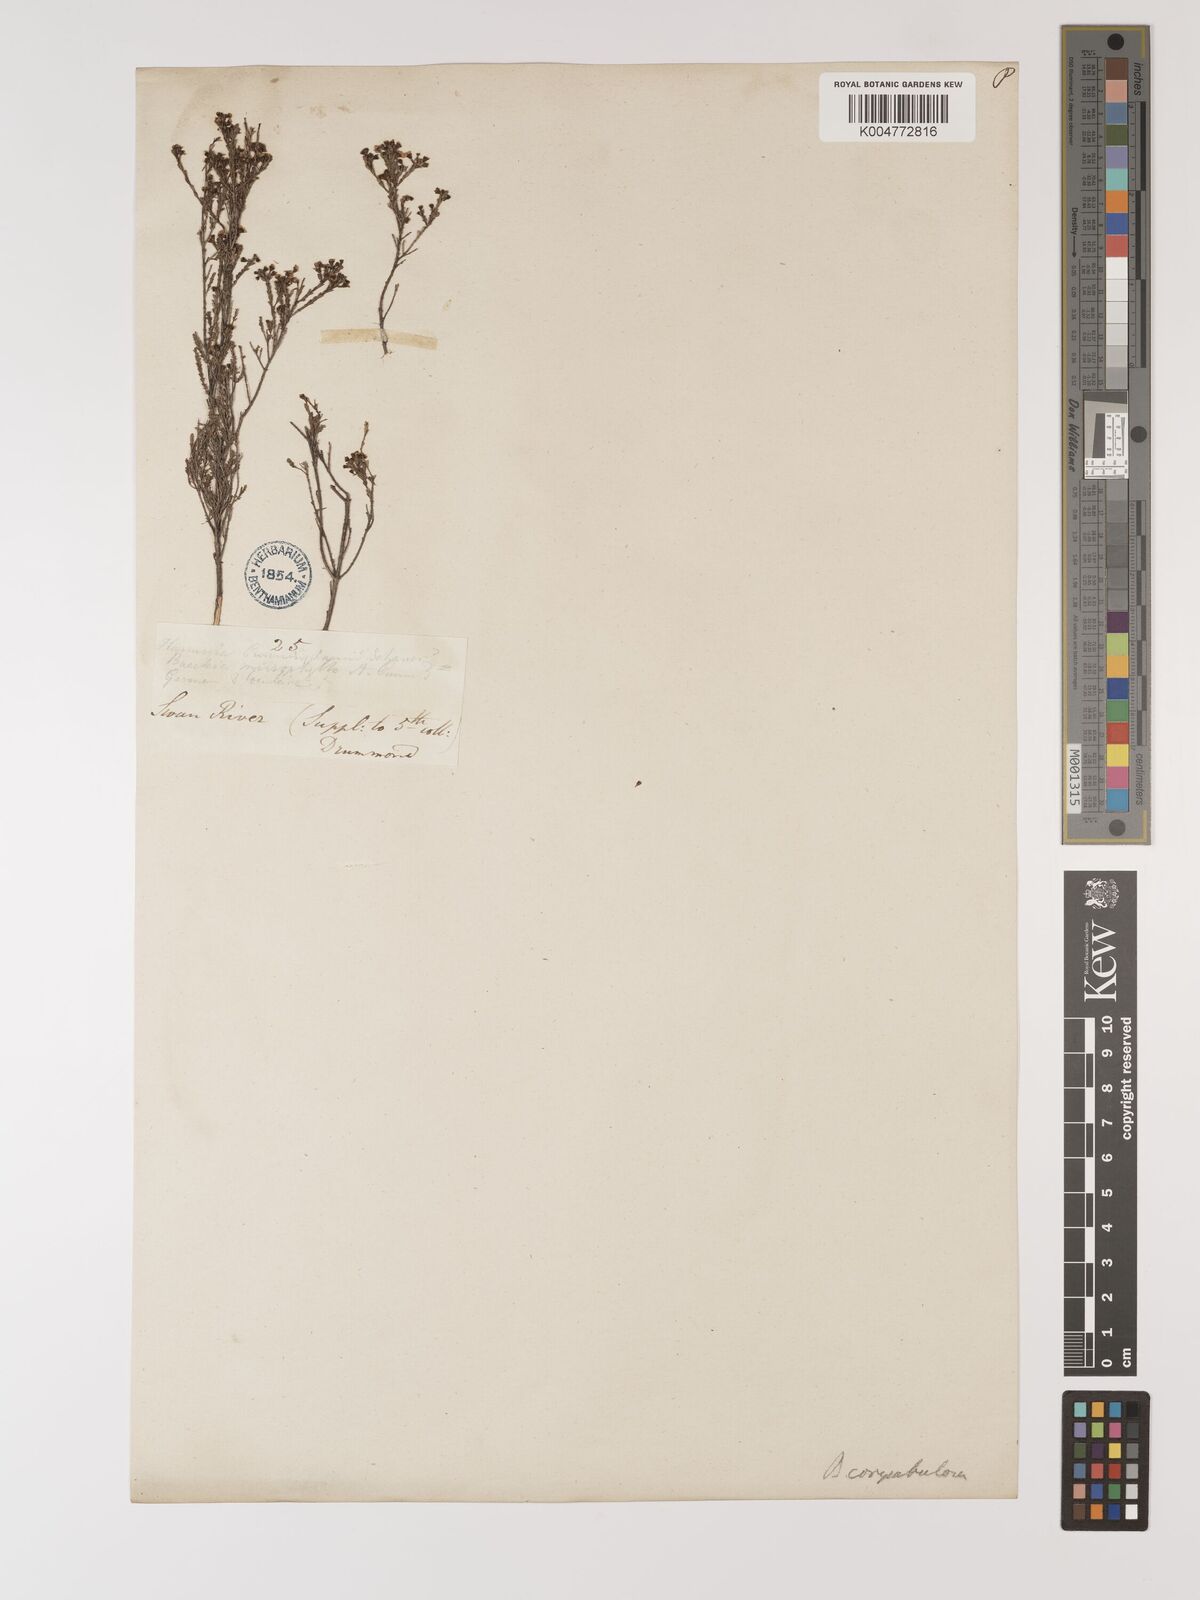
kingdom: Plantae
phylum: Tracheophyta
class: Magnoliopsida
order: Myrtales
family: Myrtaceae
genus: Ericomyrtus
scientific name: Ericomyrtus parviflora
